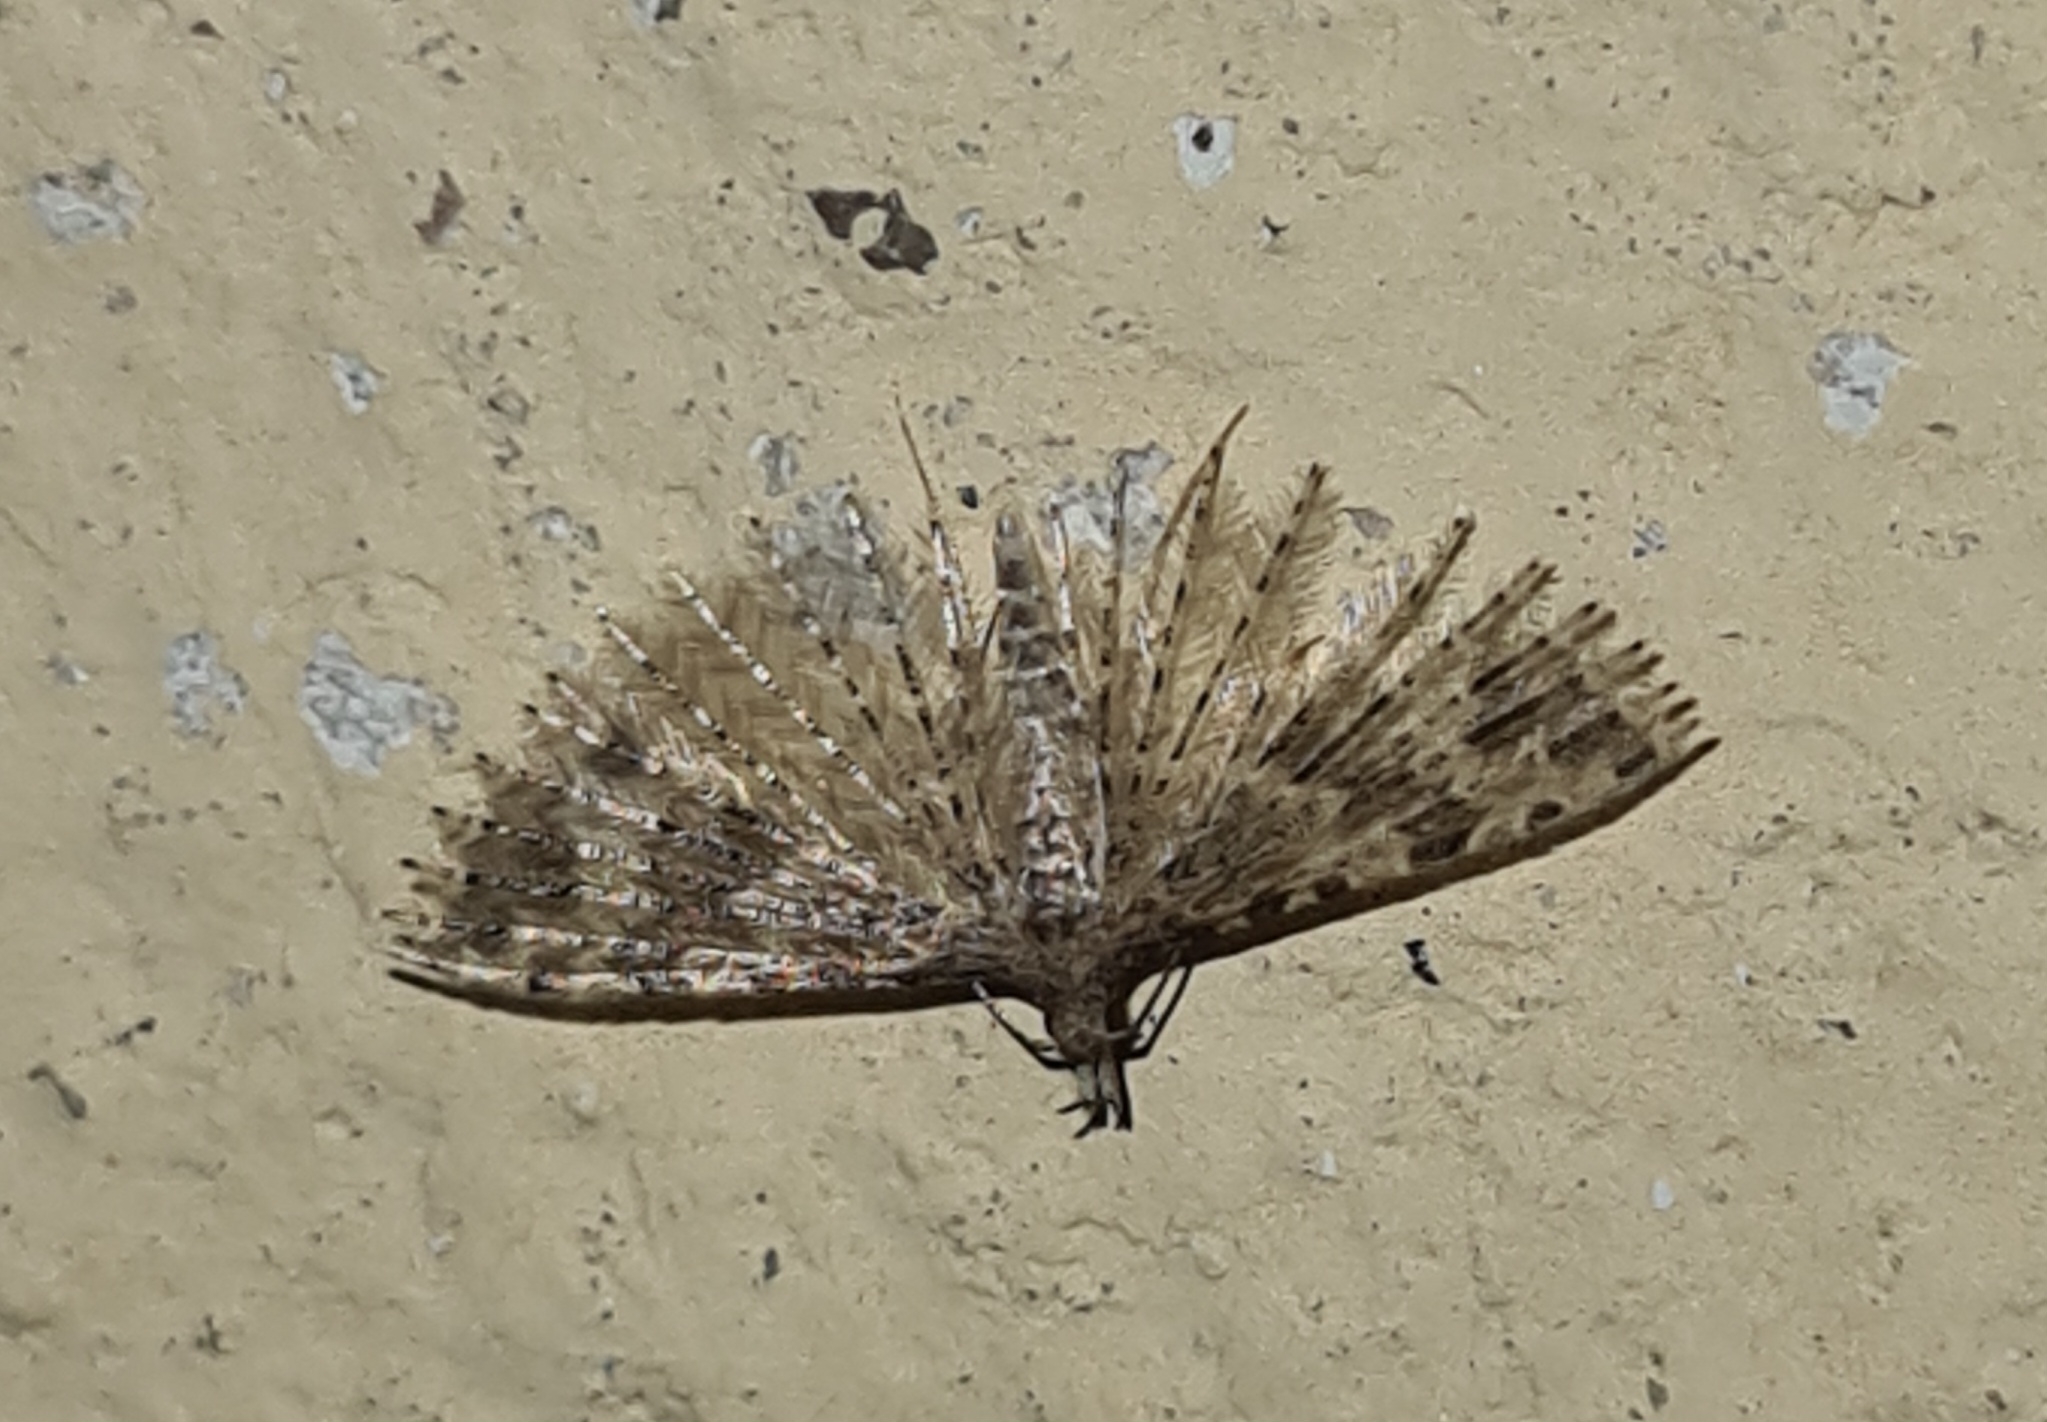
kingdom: Animalia
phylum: Arthropoda
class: Insecta
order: Lepidoptera
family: Alucitidae
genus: Alucita
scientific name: Alucita hexadactyla
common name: Kaprifoliefjermøl
